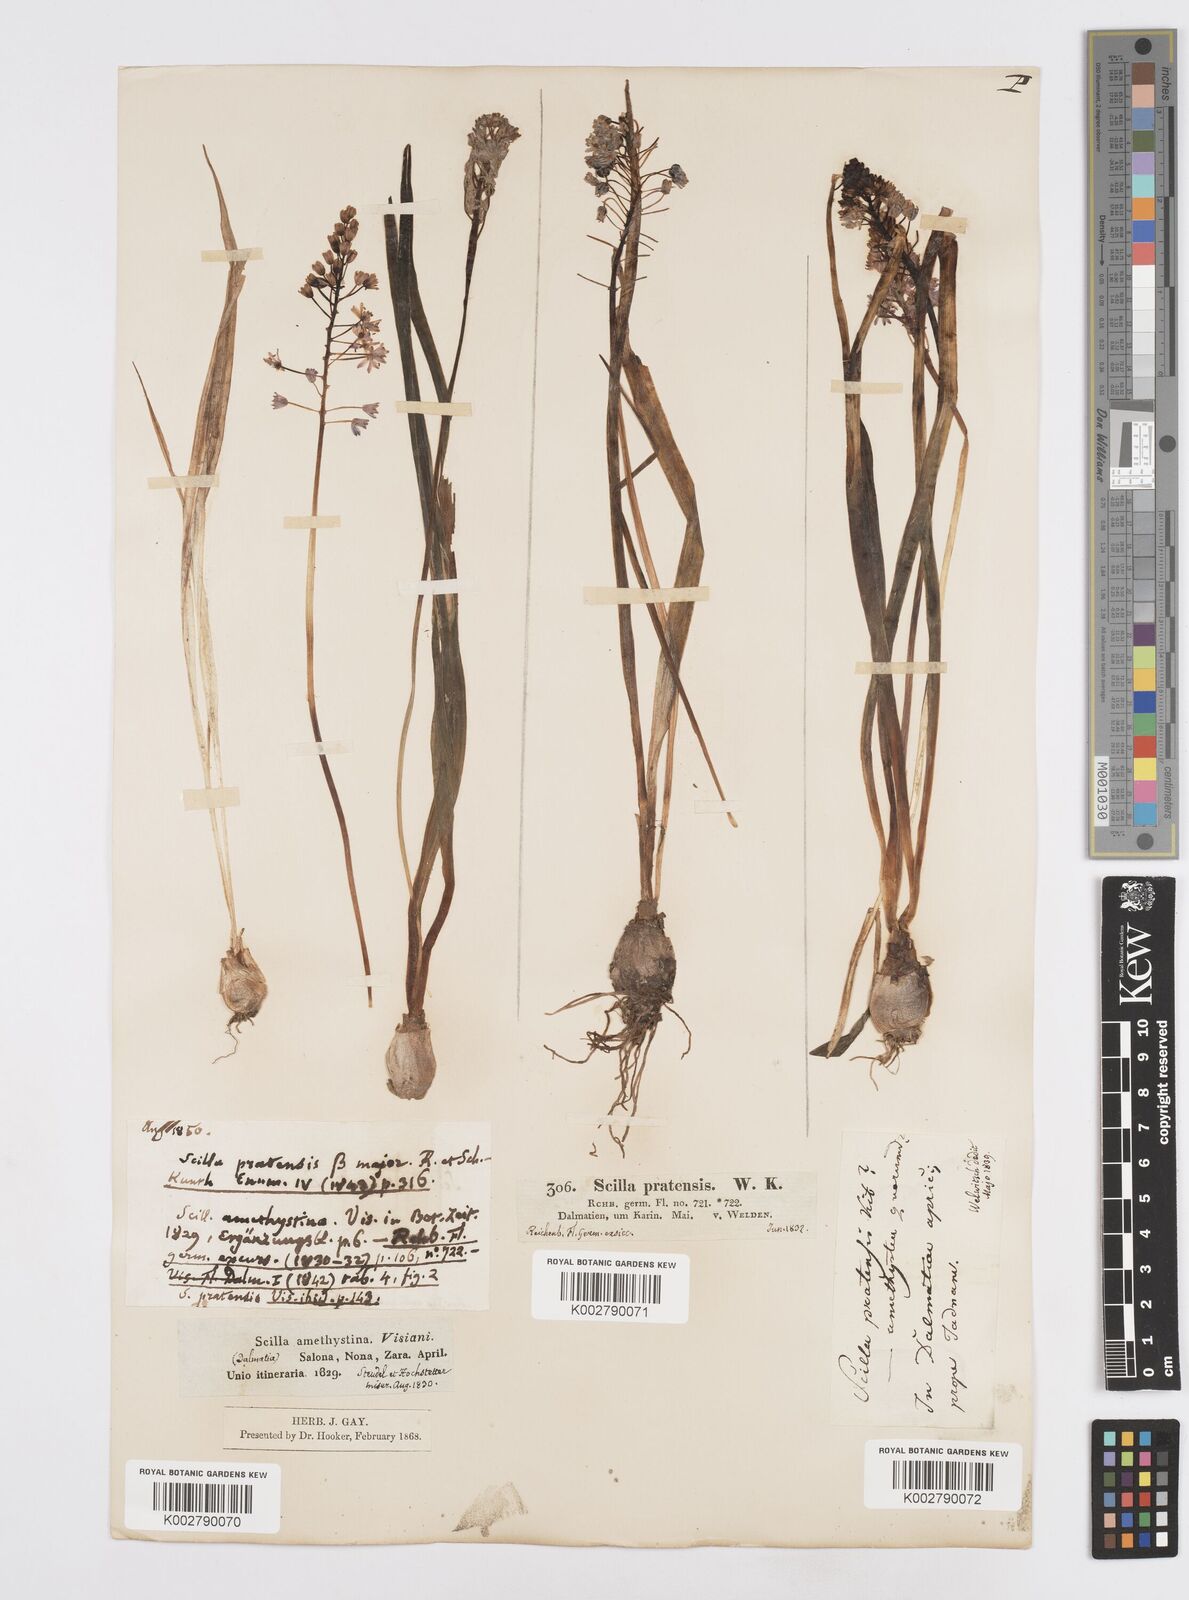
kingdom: Plantae
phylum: Tracheophyta
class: Liliopsida
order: Asparagales
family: Asparagaceae
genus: Scilla
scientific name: Scilla litardierei
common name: Amethyst meadow squill
